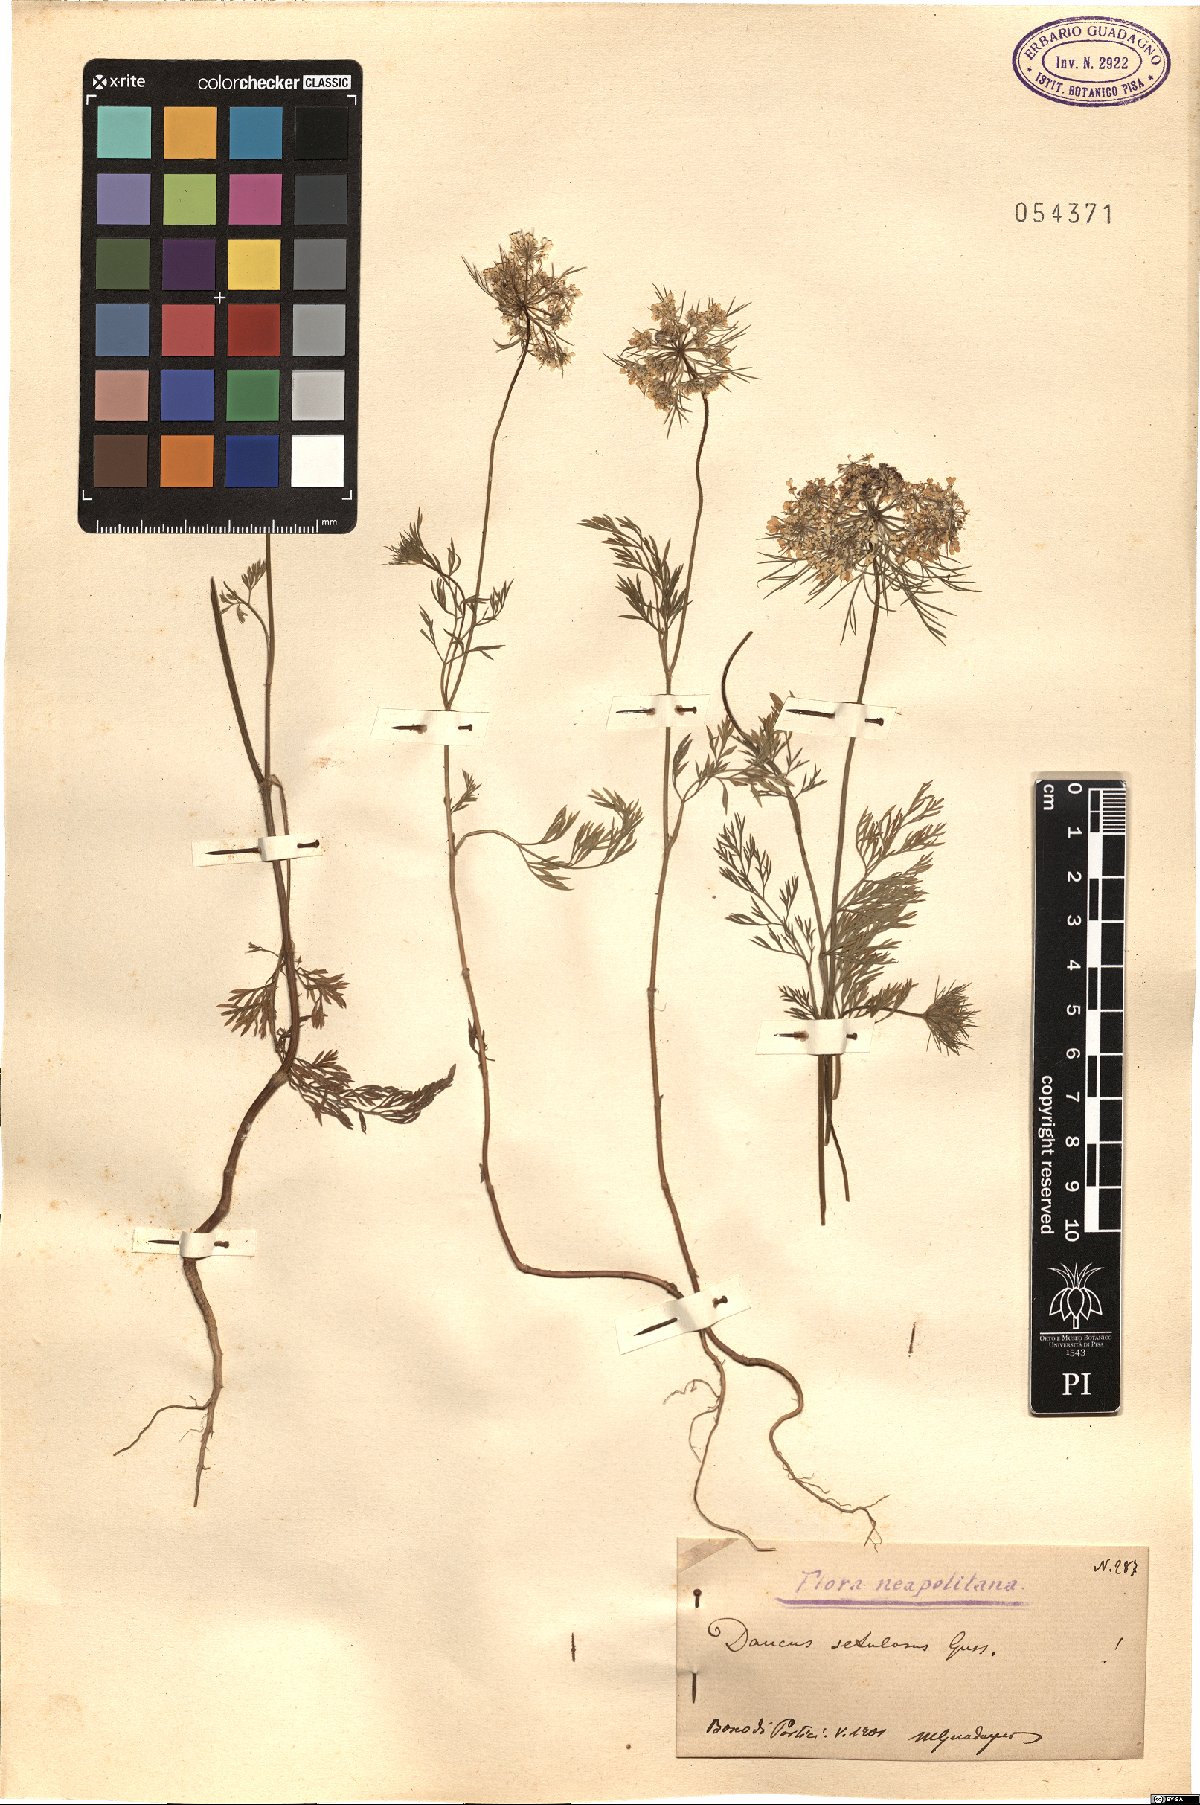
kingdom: Plantae
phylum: Tracheophyta
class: Magnoliopsida
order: Apiales
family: Apiaceae
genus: Daucus
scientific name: Daucus guttatus
